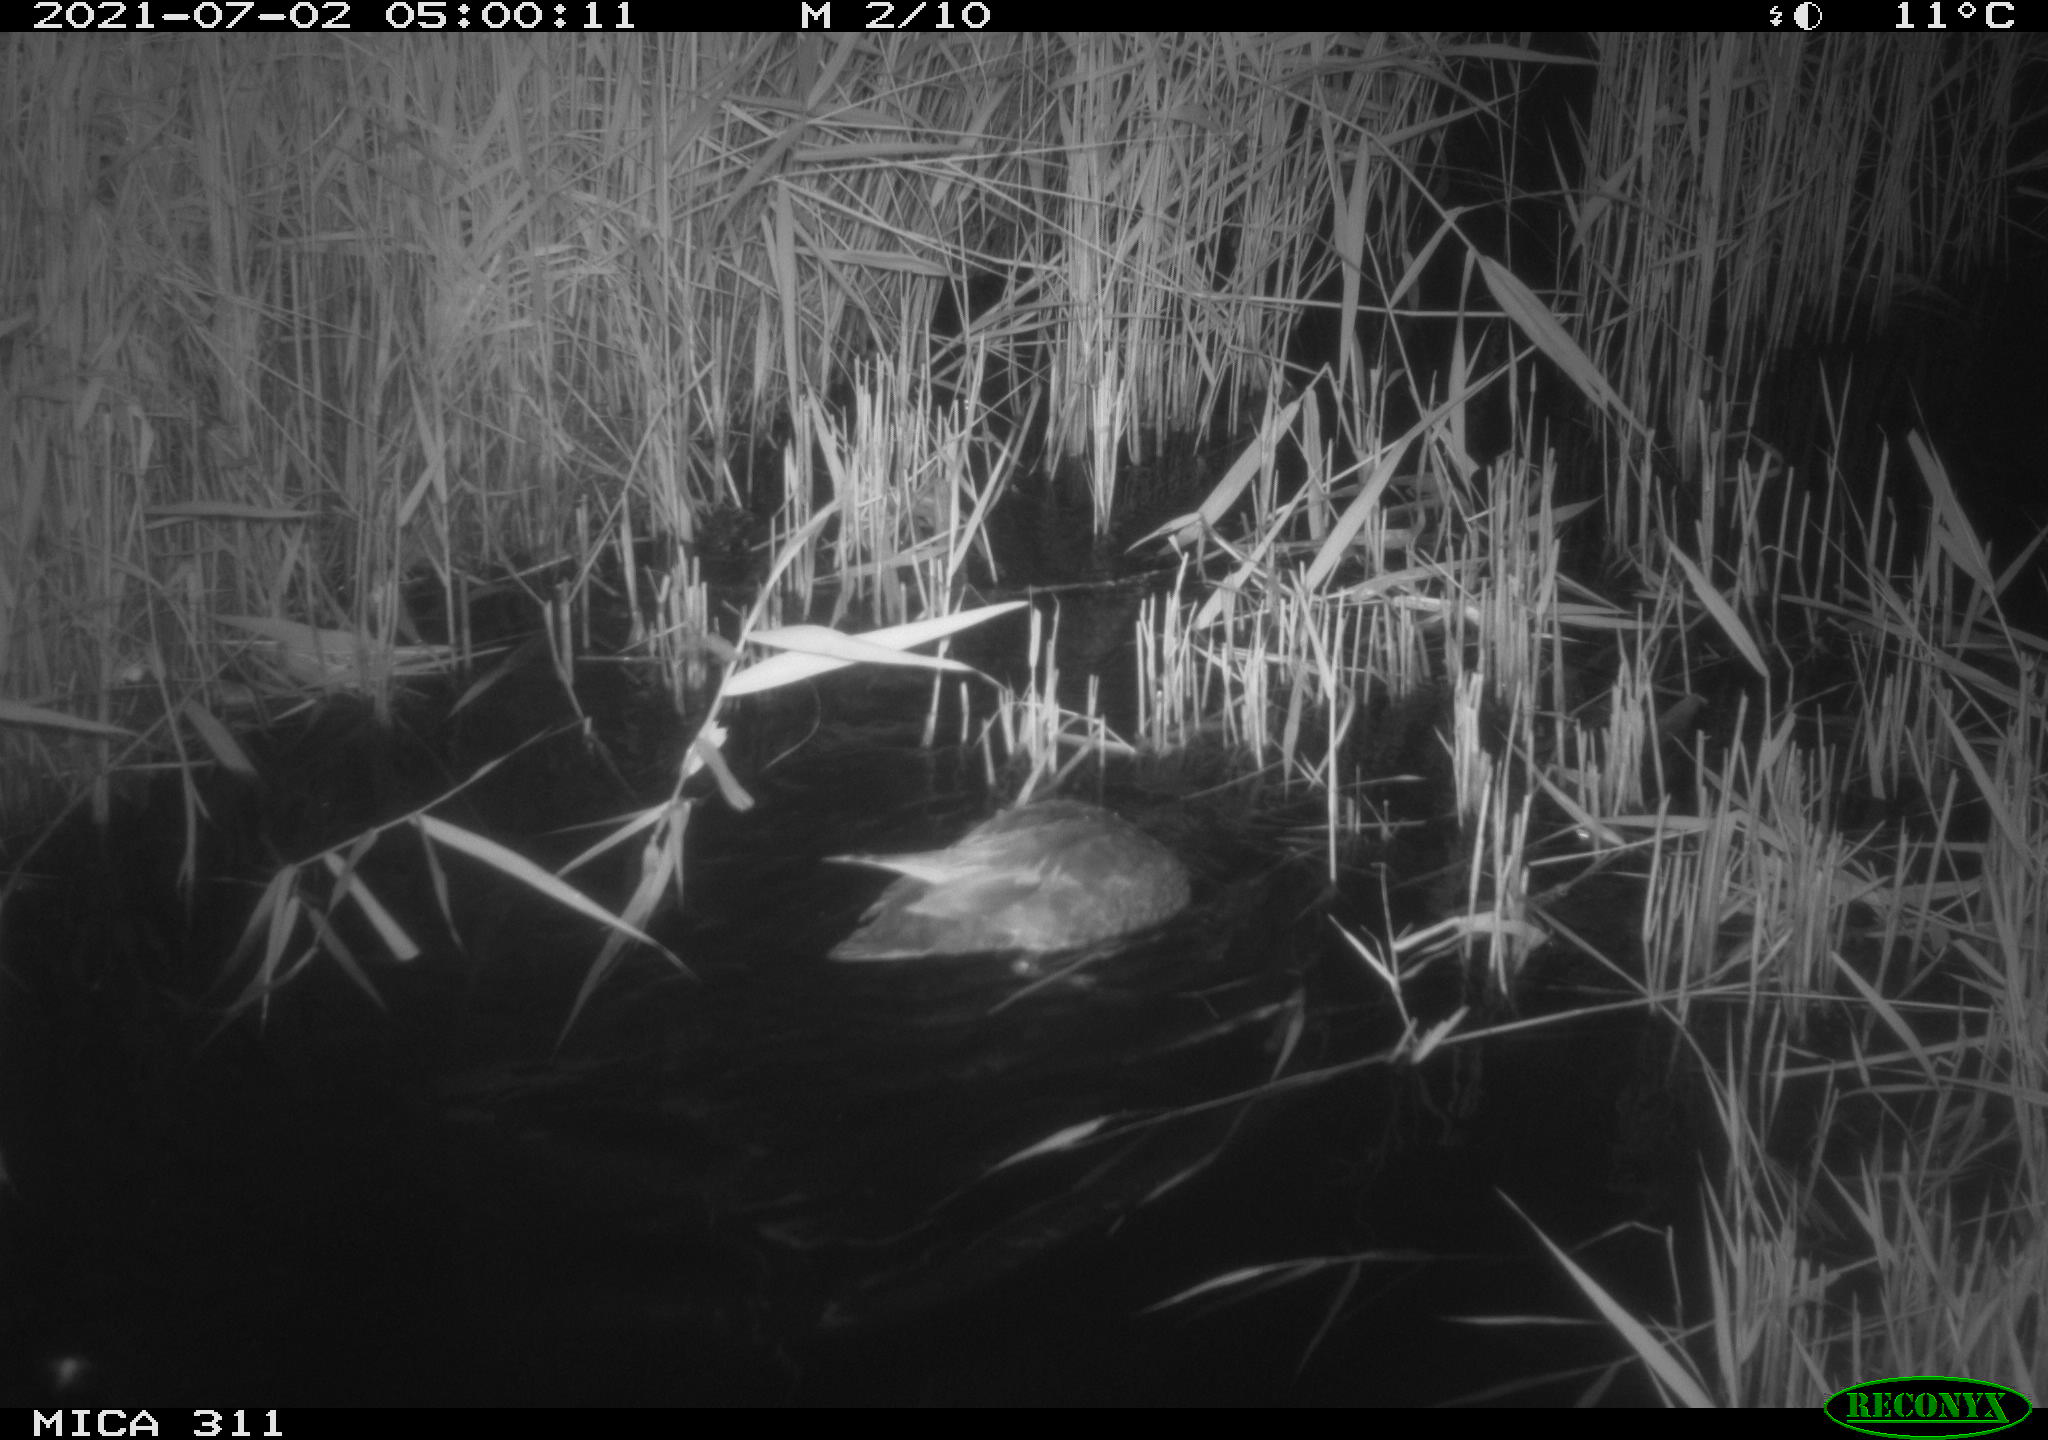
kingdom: Animalia
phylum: Chordata
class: Aves
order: Anseriformes
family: Anatidae
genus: Anas
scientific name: Anas
